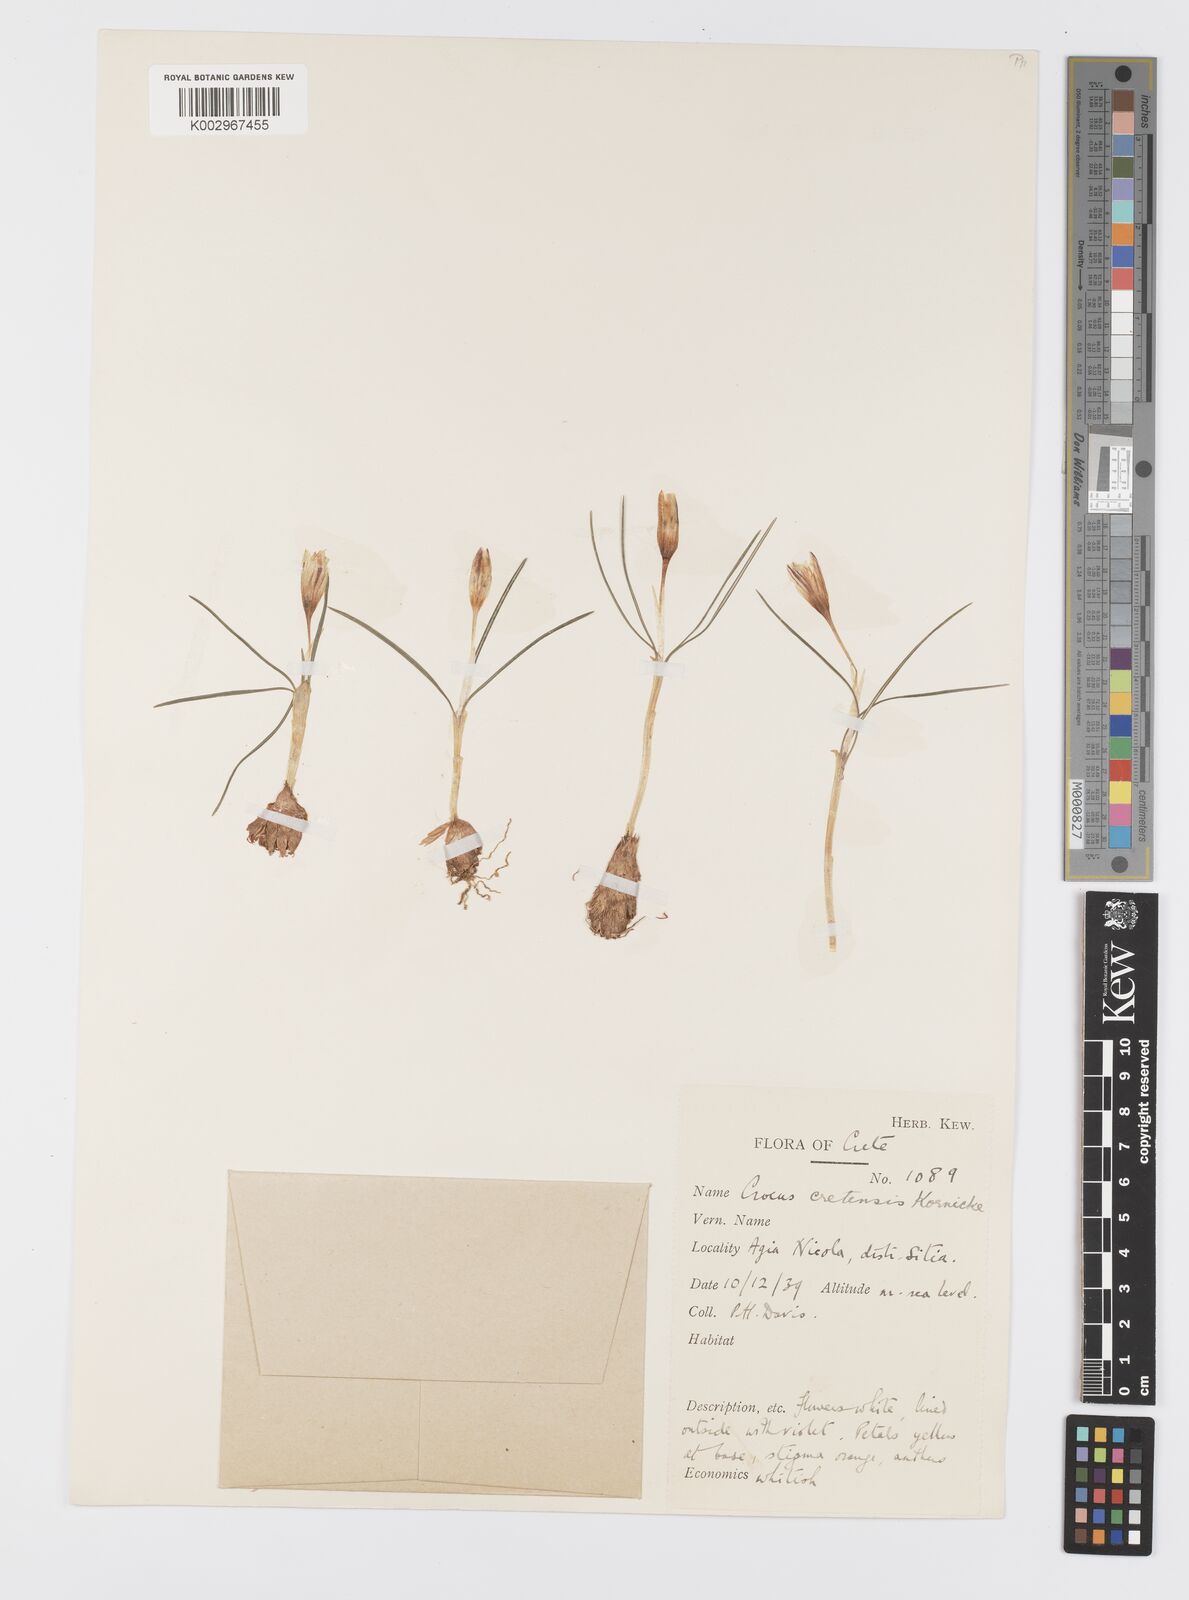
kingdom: Plantae
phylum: Tracheophyta
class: Liliopsida
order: Asparagales
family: Iridaceae
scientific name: Iridaceae
